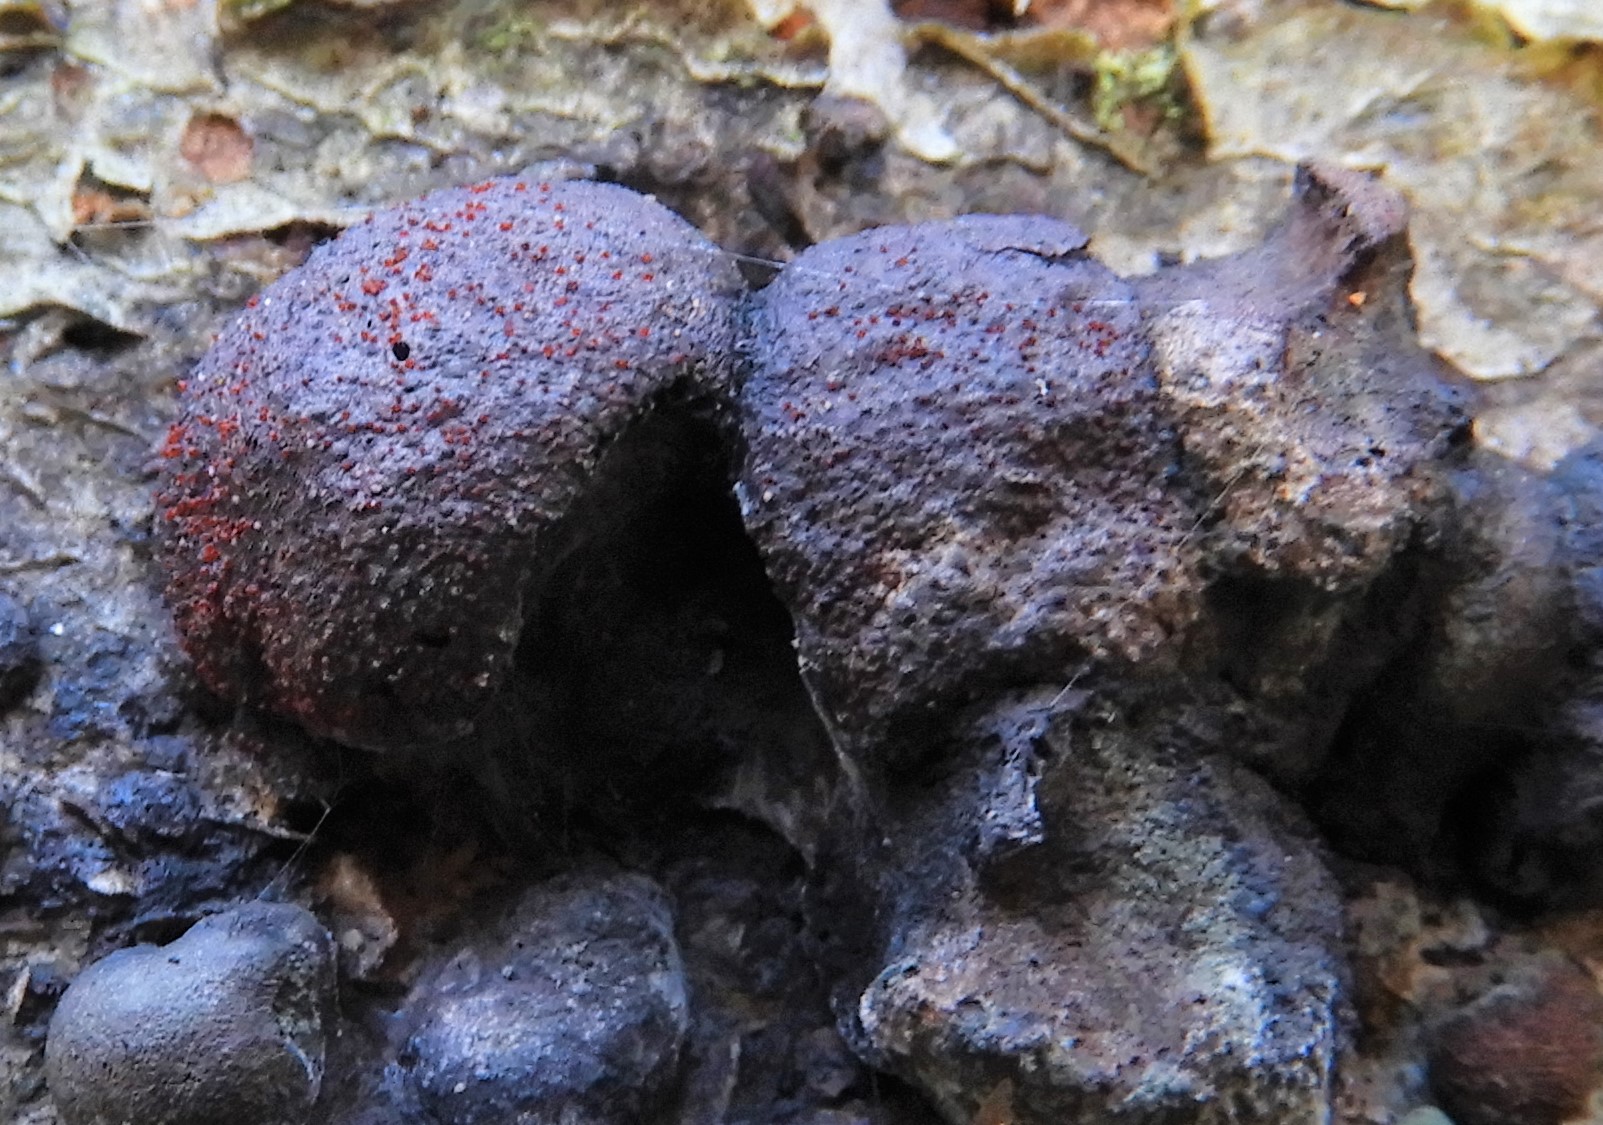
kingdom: Fungi
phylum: Ascomycota
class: Sordariomycetes
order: Hypocreales
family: Nectriaceae
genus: Cosmospora
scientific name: Cosmospora arxii
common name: kuljordbær-cinnobersvamp
